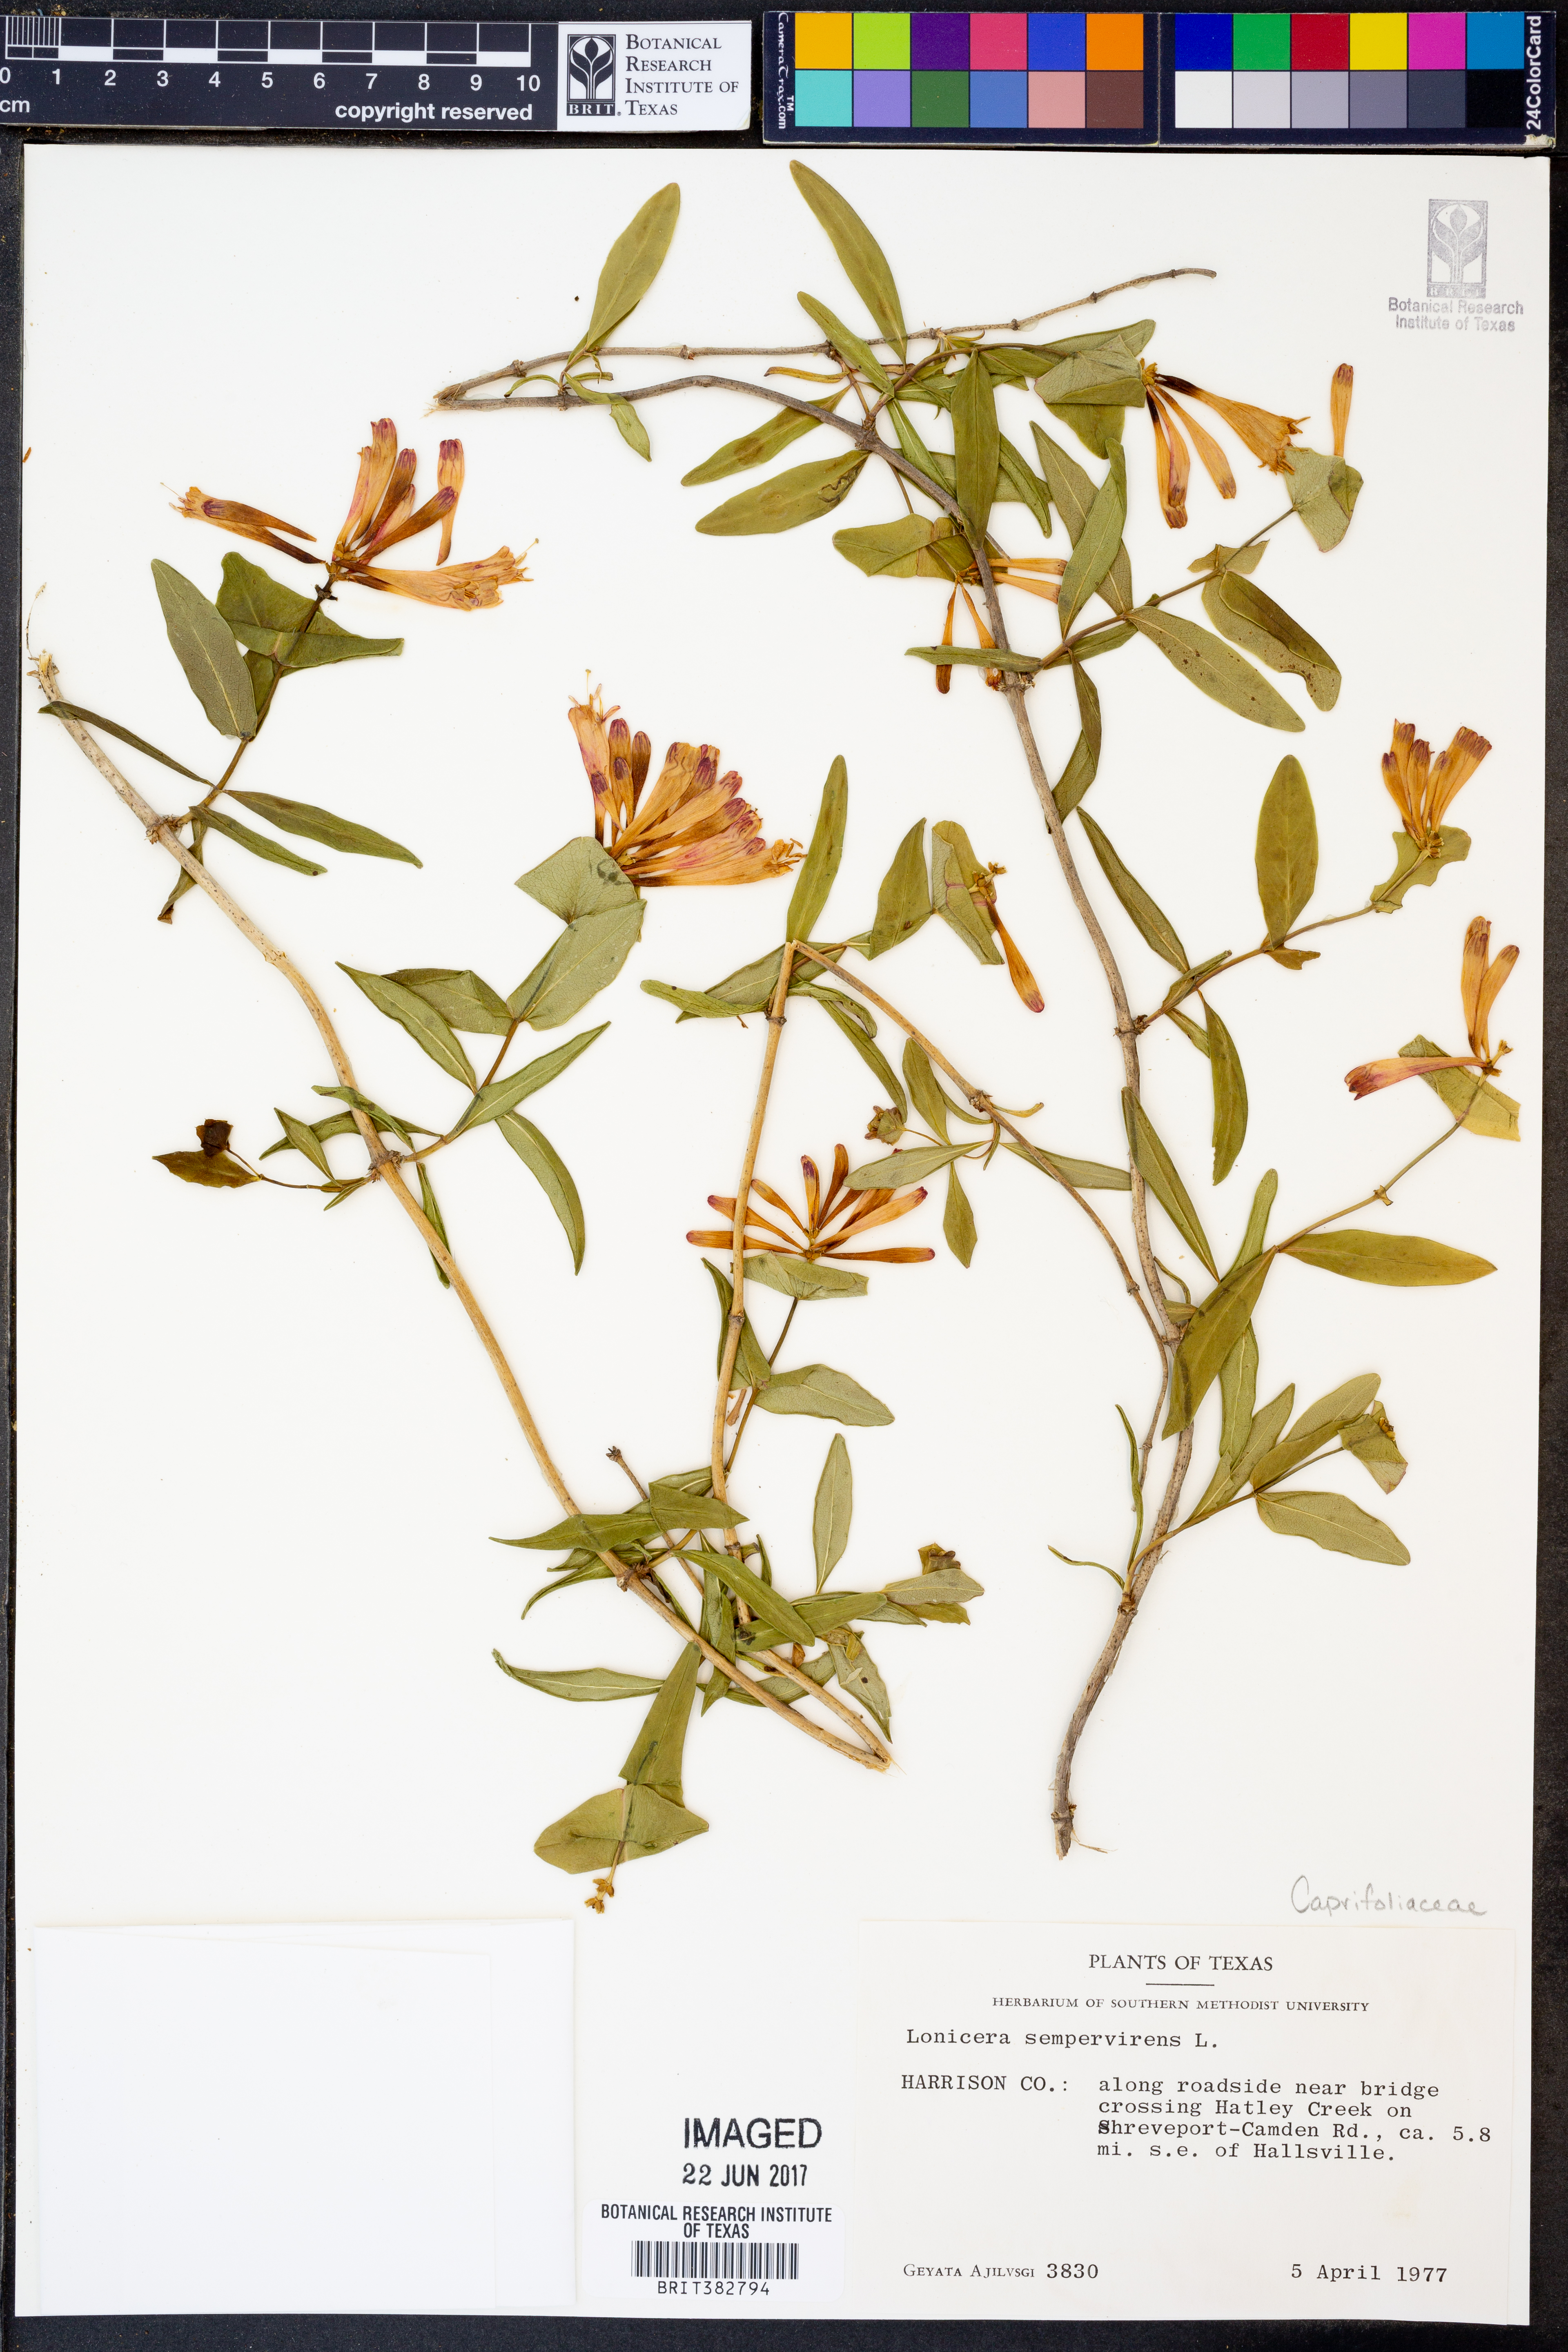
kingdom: Plantae
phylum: Tracheophyta
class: Magnoliopsida
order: Dipsacales
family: Caprifoliaceae
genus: Lonicera
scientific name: Lonicera sempervirens
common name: Coral honeysuckle
